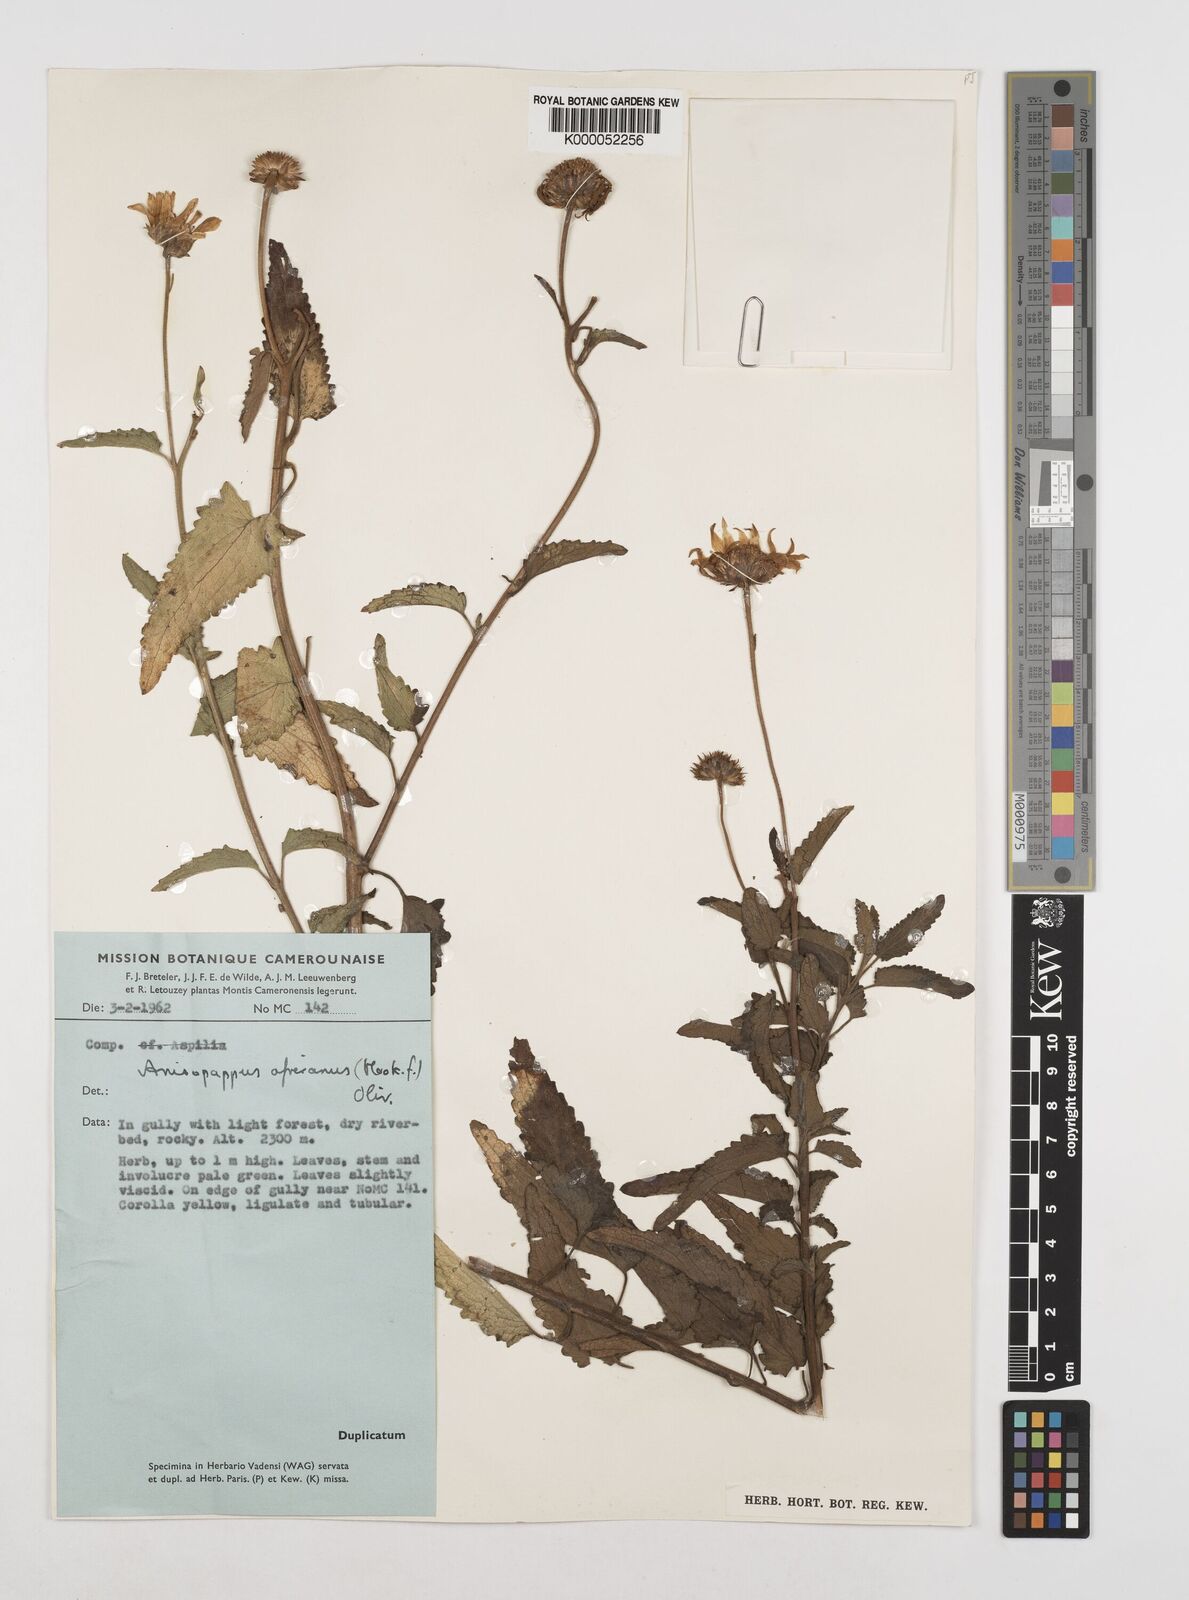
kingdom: Plantae
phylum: Tracheophyta
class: Magnoliopsida
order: Asterales
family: Asteraceae
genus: Anisopappus
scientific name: Anisopappus chinensis
